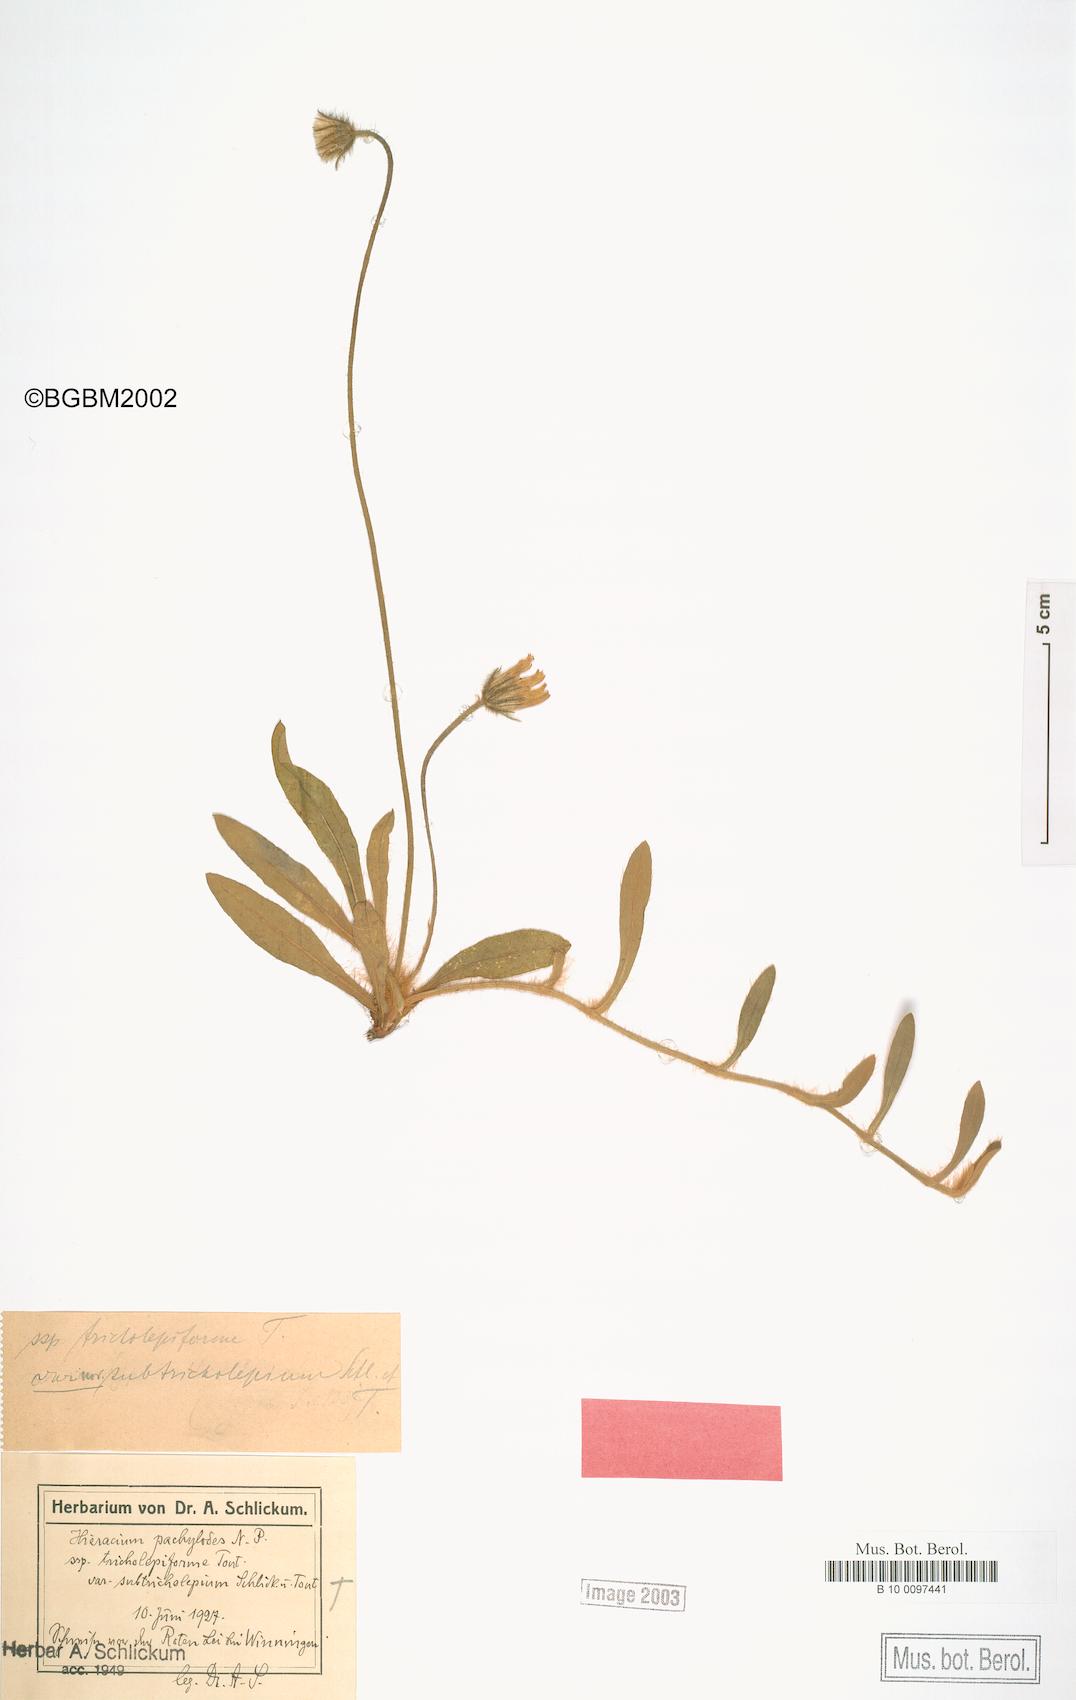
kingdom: Plantae
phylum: Tracheophyta
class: Magnoliopsida
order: Asterales
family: Asteraceae
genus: Pilosella
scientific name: Pilosella longisquama
